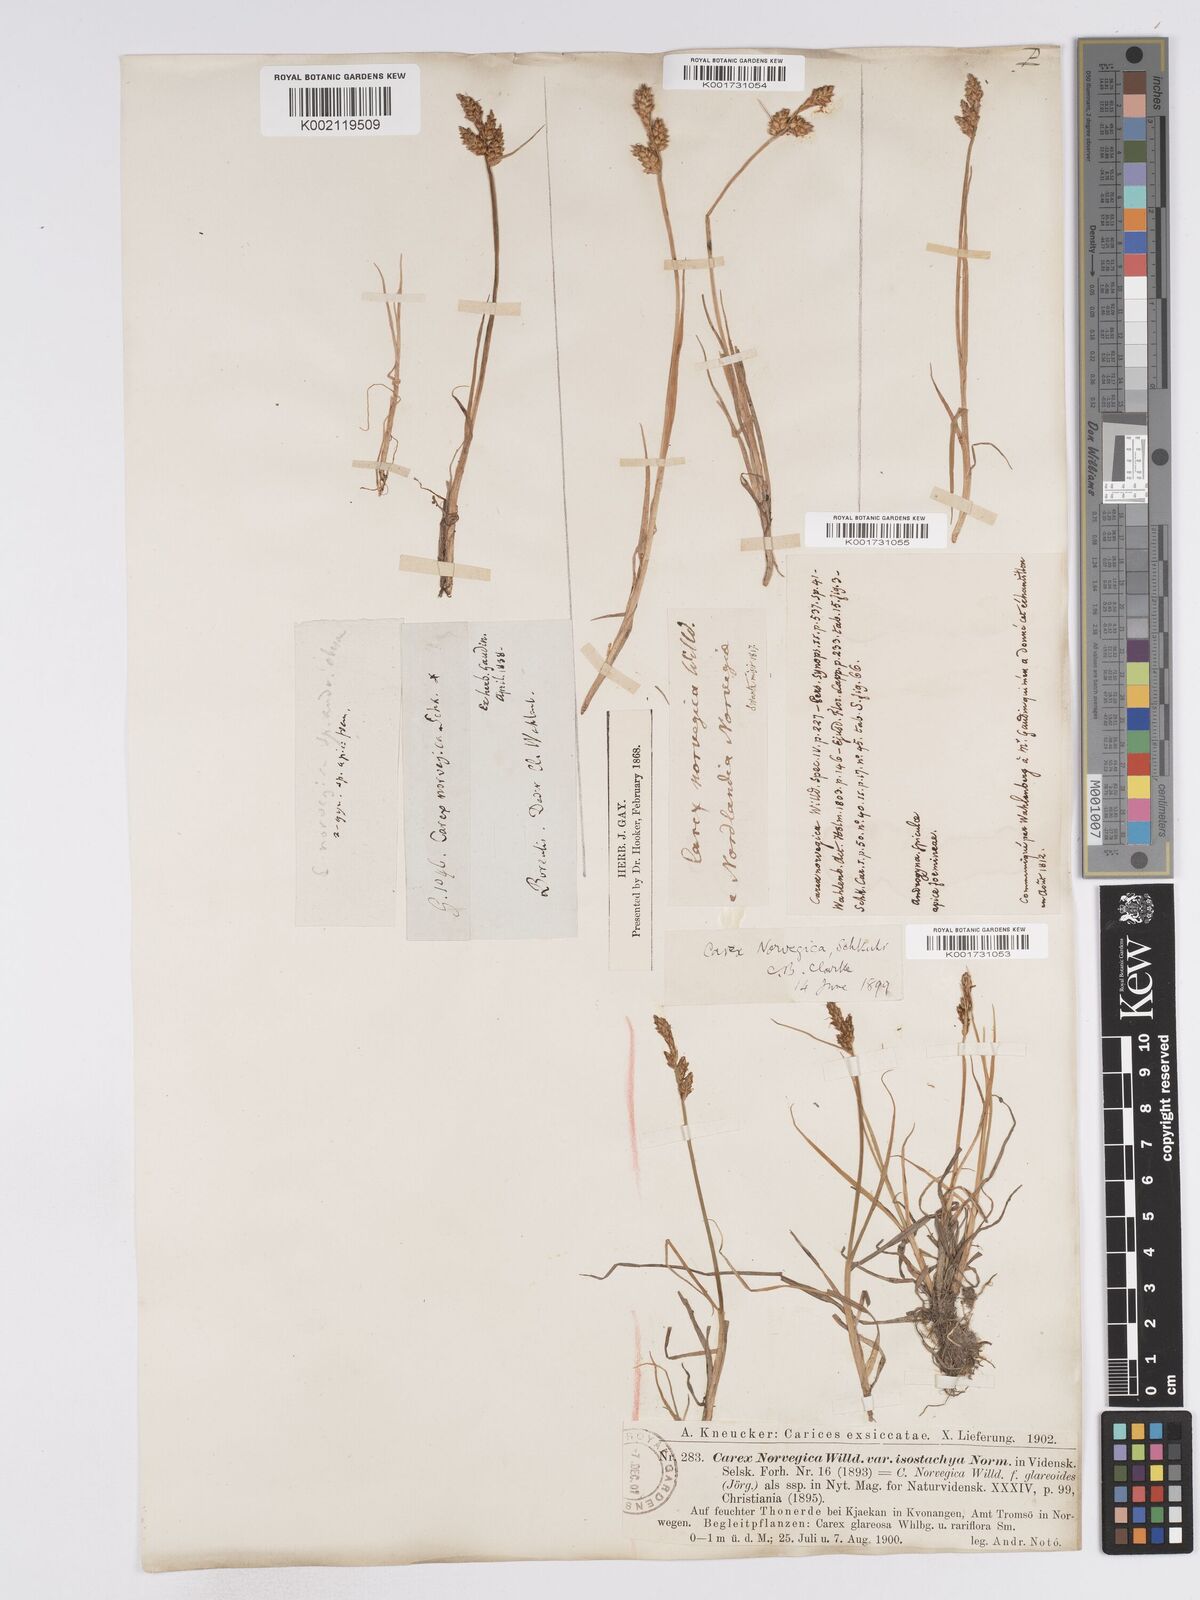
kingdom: Plantae
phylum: Tracheophyta
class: Liliopsida
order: Poales
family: Cyperaceae
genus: Carex
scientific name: Carex mackenziei
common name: Mackenzie's sedge
